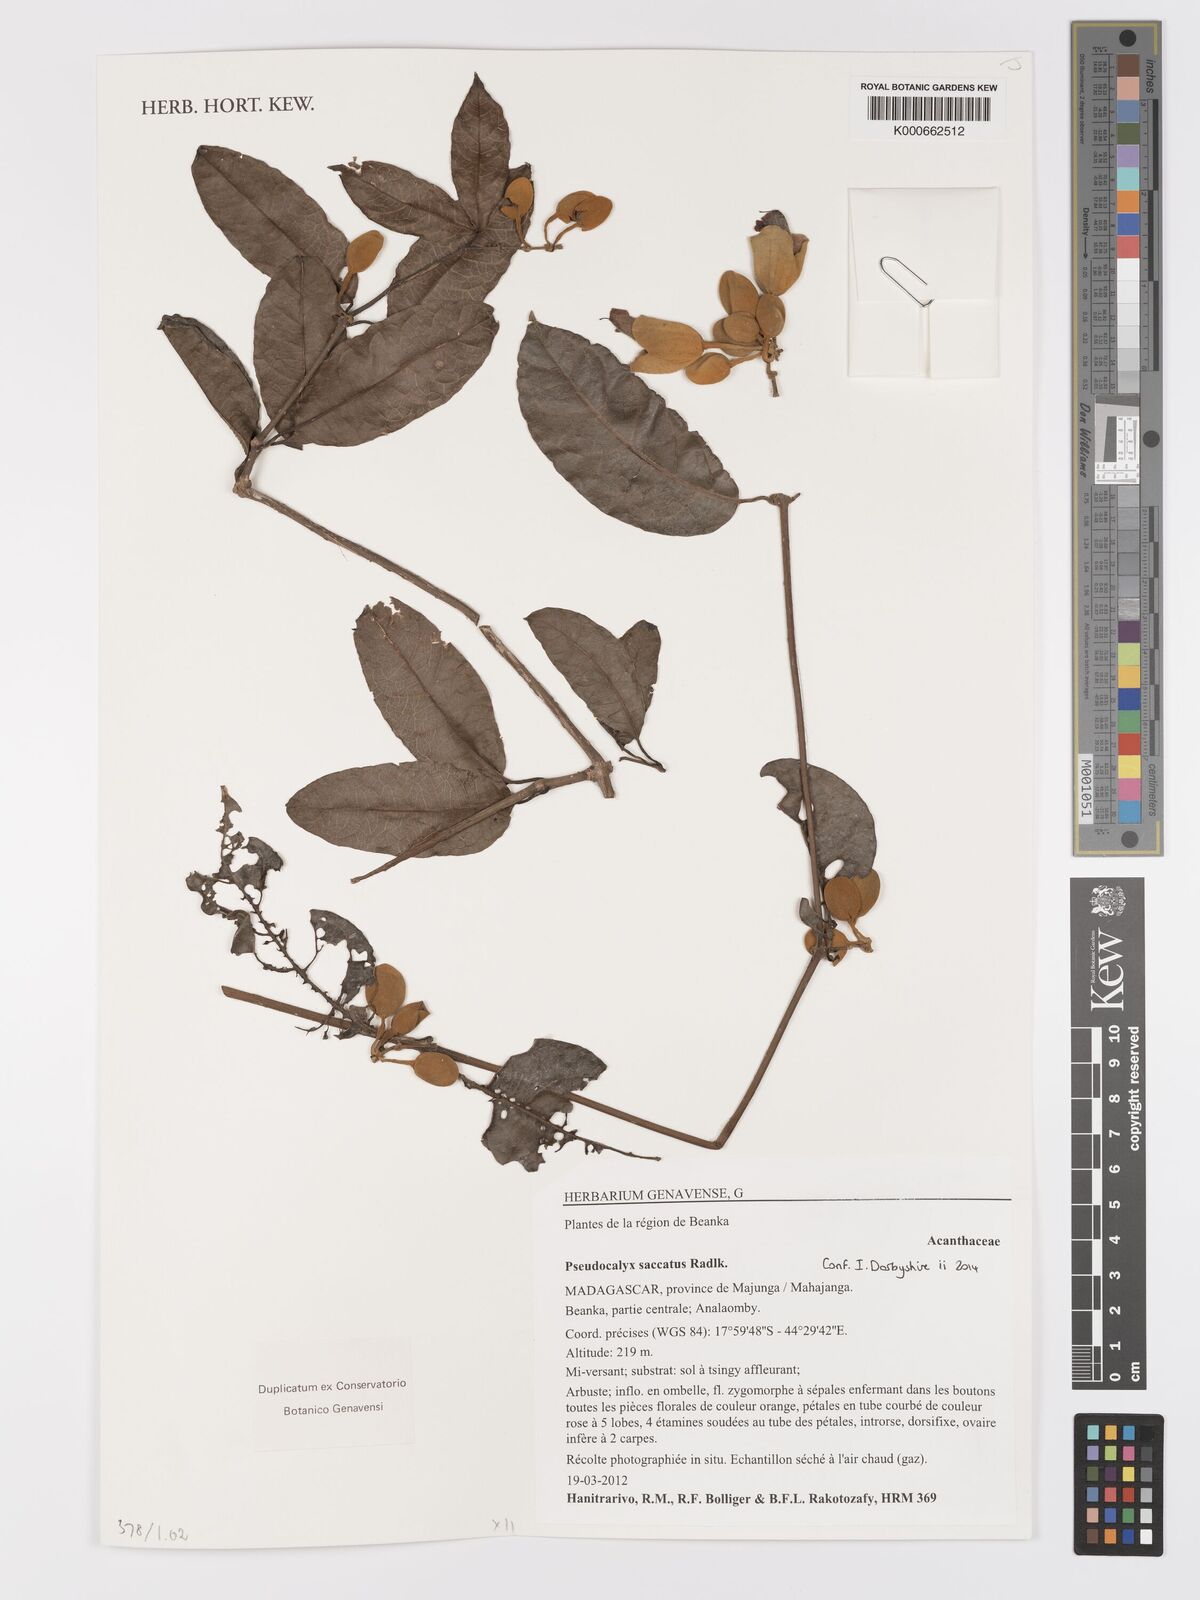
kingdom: Plantae
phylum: Tracheophyta
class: Magnoliopsida
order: Lamiales
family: Acanthaceae
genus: Pseudocalyx
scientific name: Pseudocalyx saccatus
